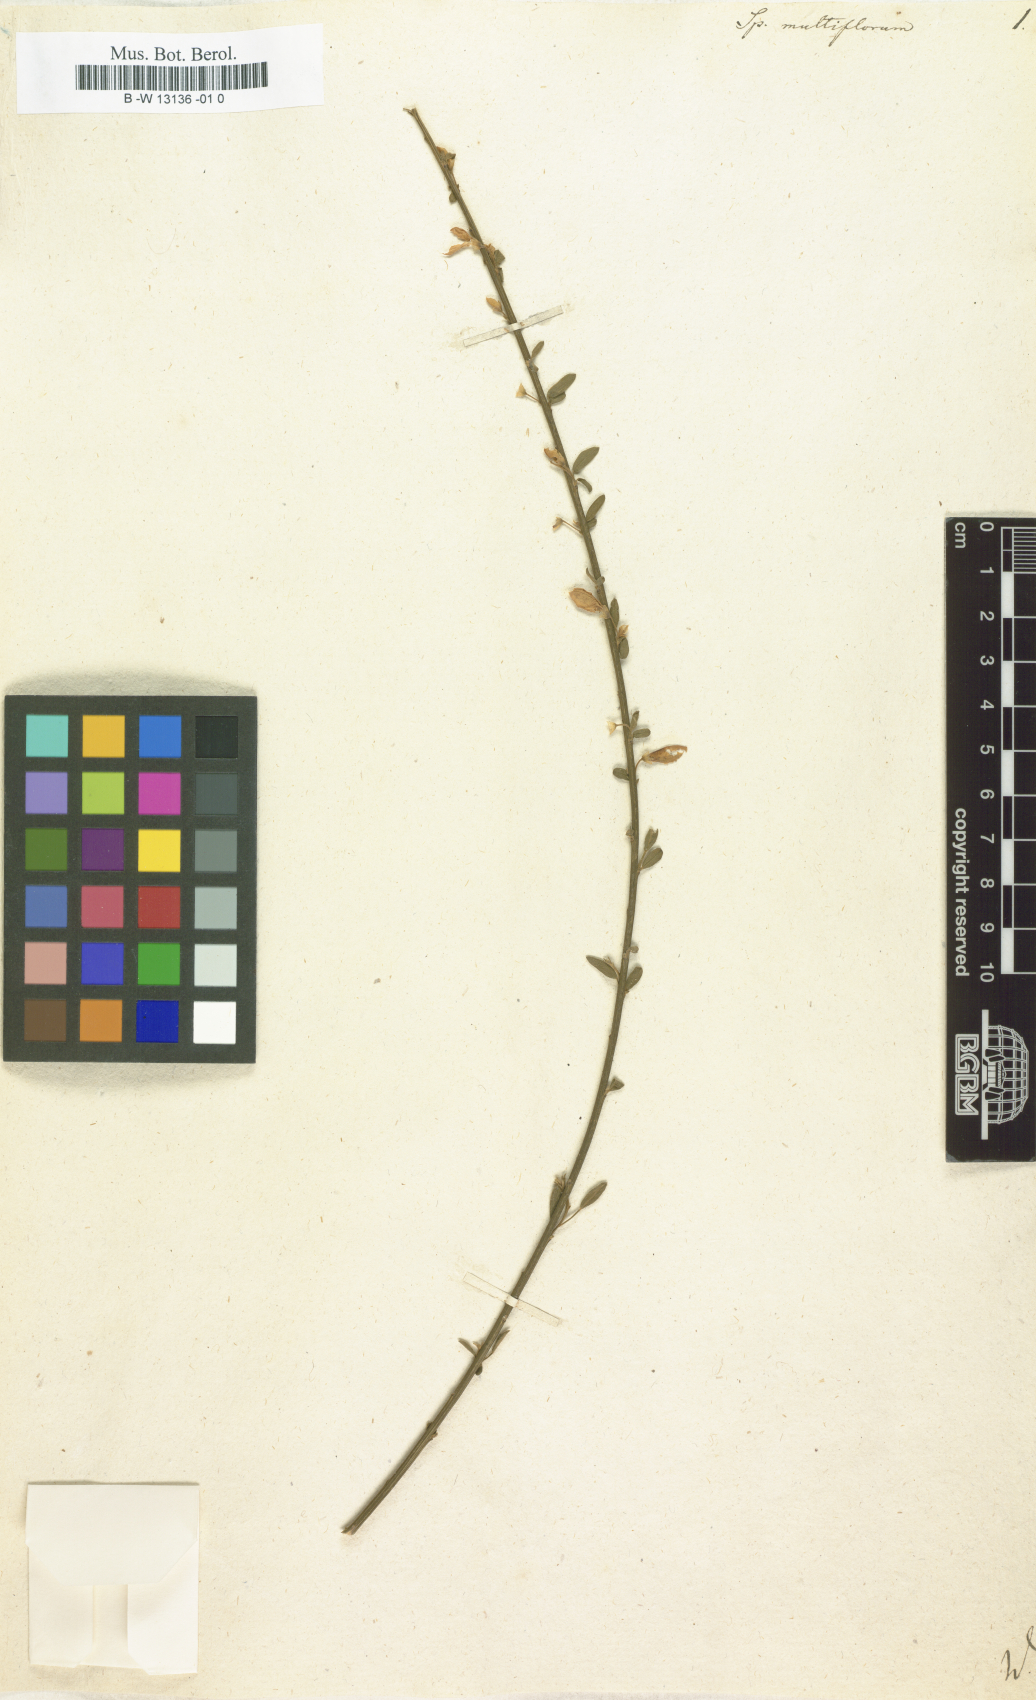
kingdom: Plantae
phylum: Tracheophyta
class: Magnoliopsida
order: Fabales
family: Fabaceae
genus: Cytisus
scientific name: Cytisus multiflorus
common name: White broom
